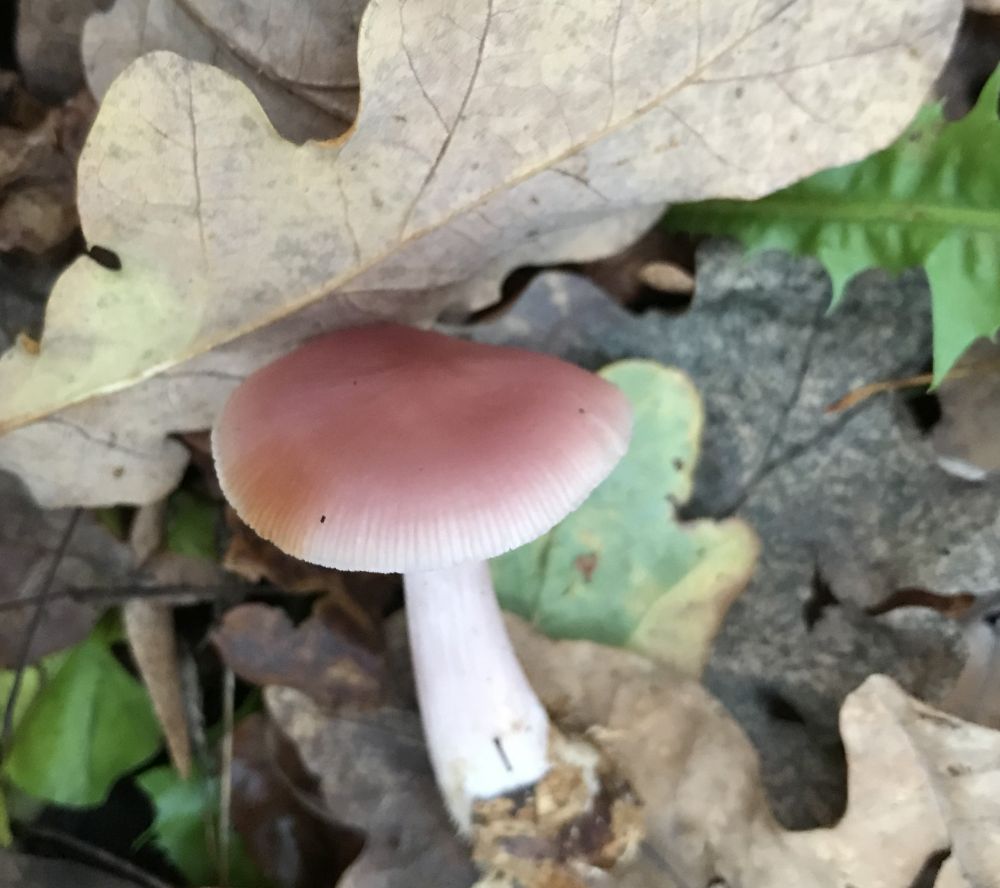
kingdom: Fungi
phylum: Basidiomycota
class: Agaricomycetes
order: Agaricales
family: Mycenaceae
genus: Mycena
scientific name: Mycena rosea
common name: rosa huesvamp
